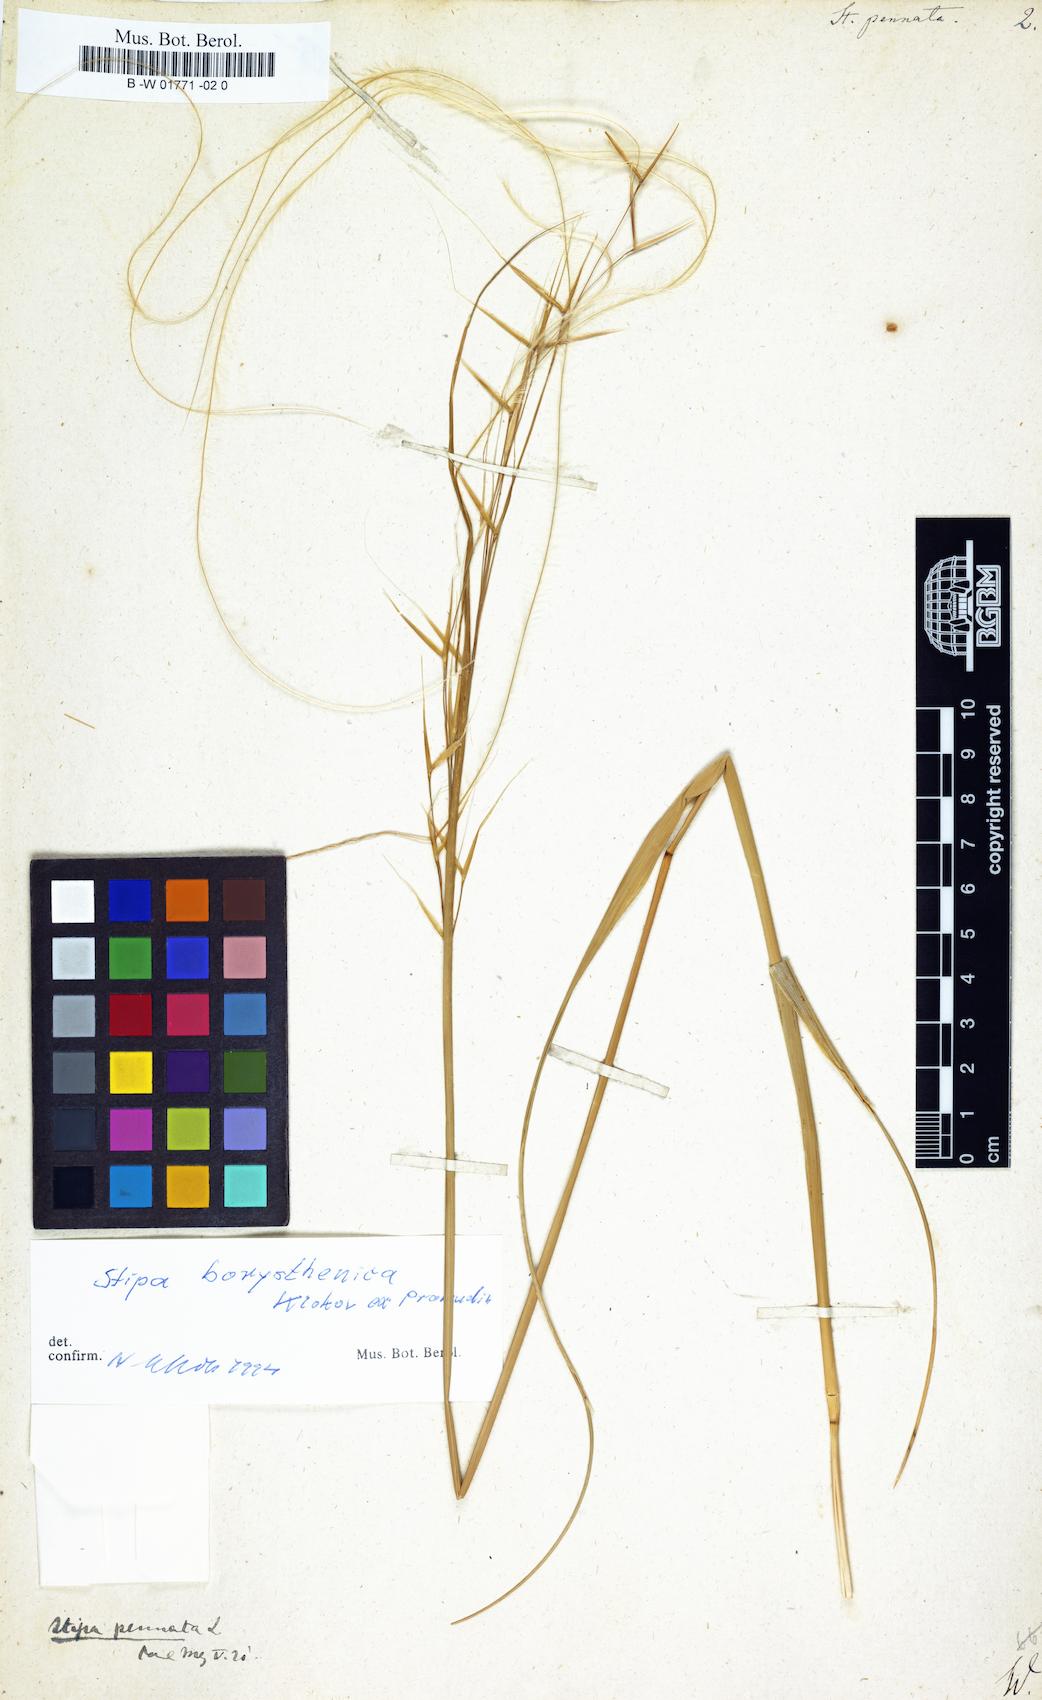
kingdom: Plantae
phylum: Tracheophyta
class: Liliopsida
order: Poales
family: Poaceae
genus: Stipa
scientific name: Stipa pennata
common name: European feather grass
